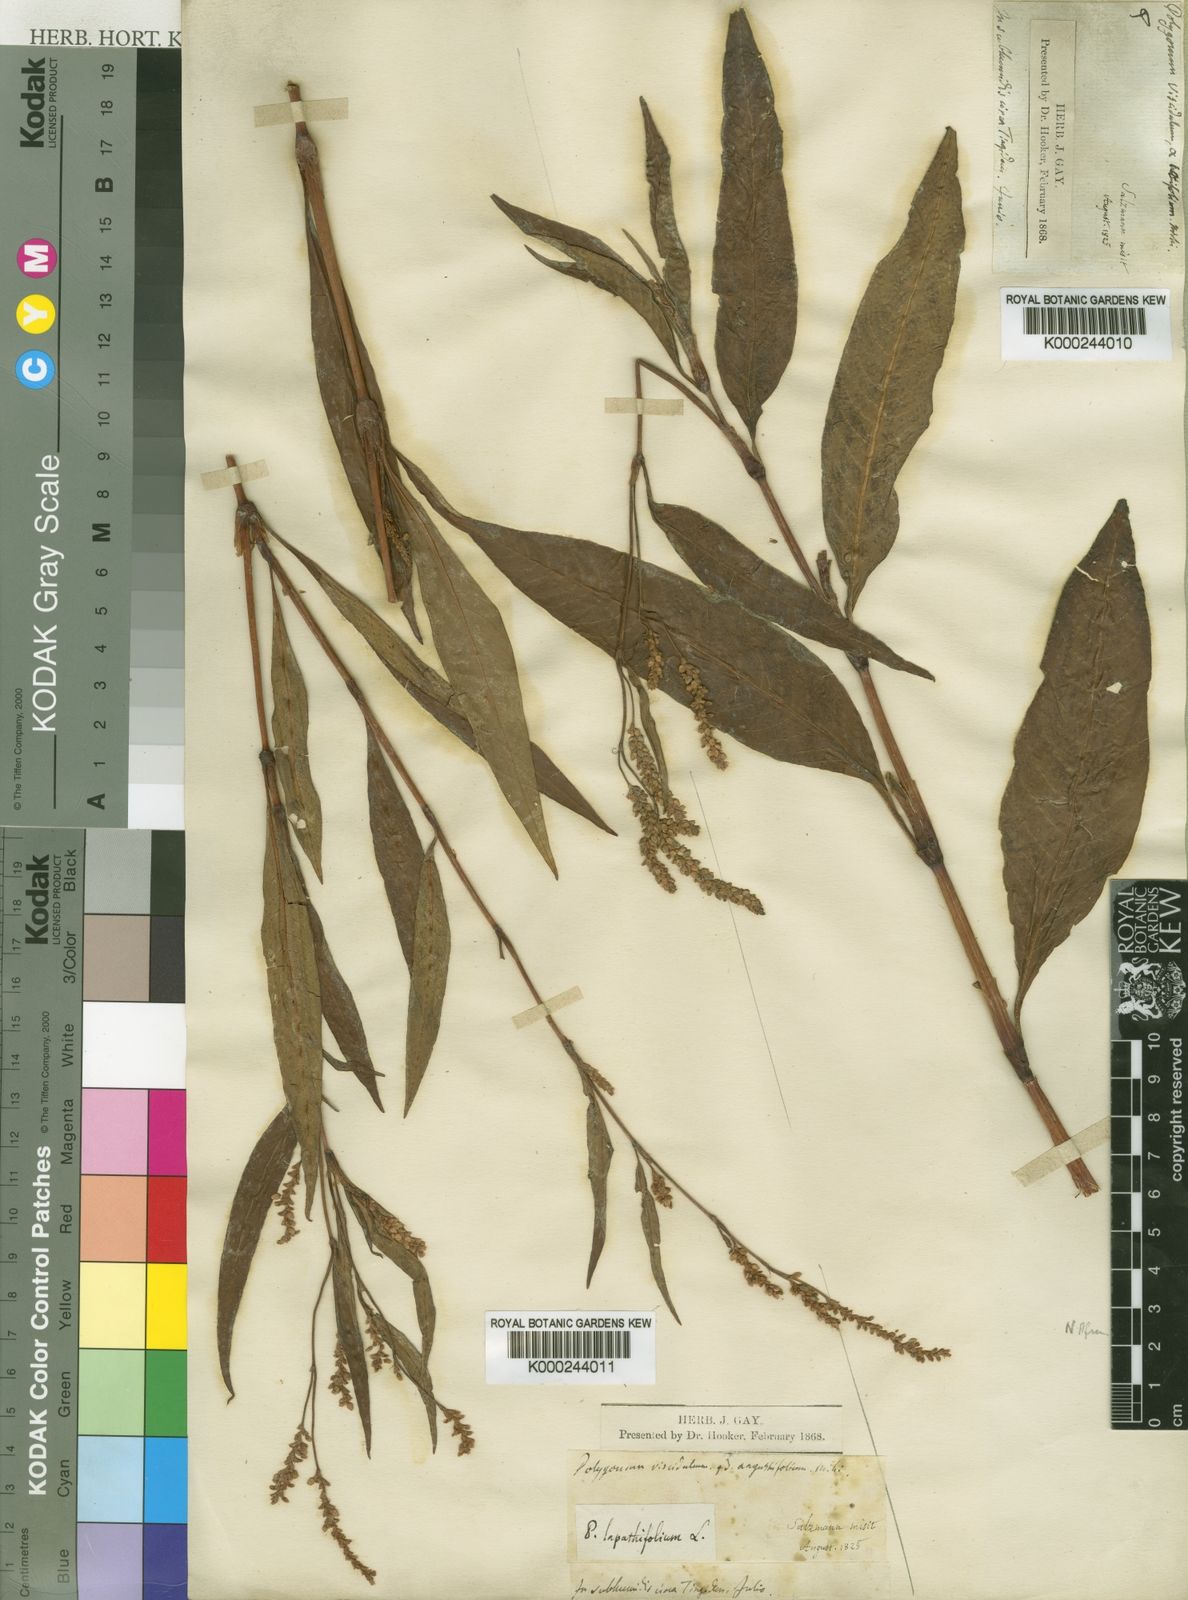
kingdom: Plantae
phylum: Tracheophyta
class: Magnoliopsida
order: Caryophyllales
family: Polygonaceae
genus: Persicaria
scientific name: Persicaria salicifolia
